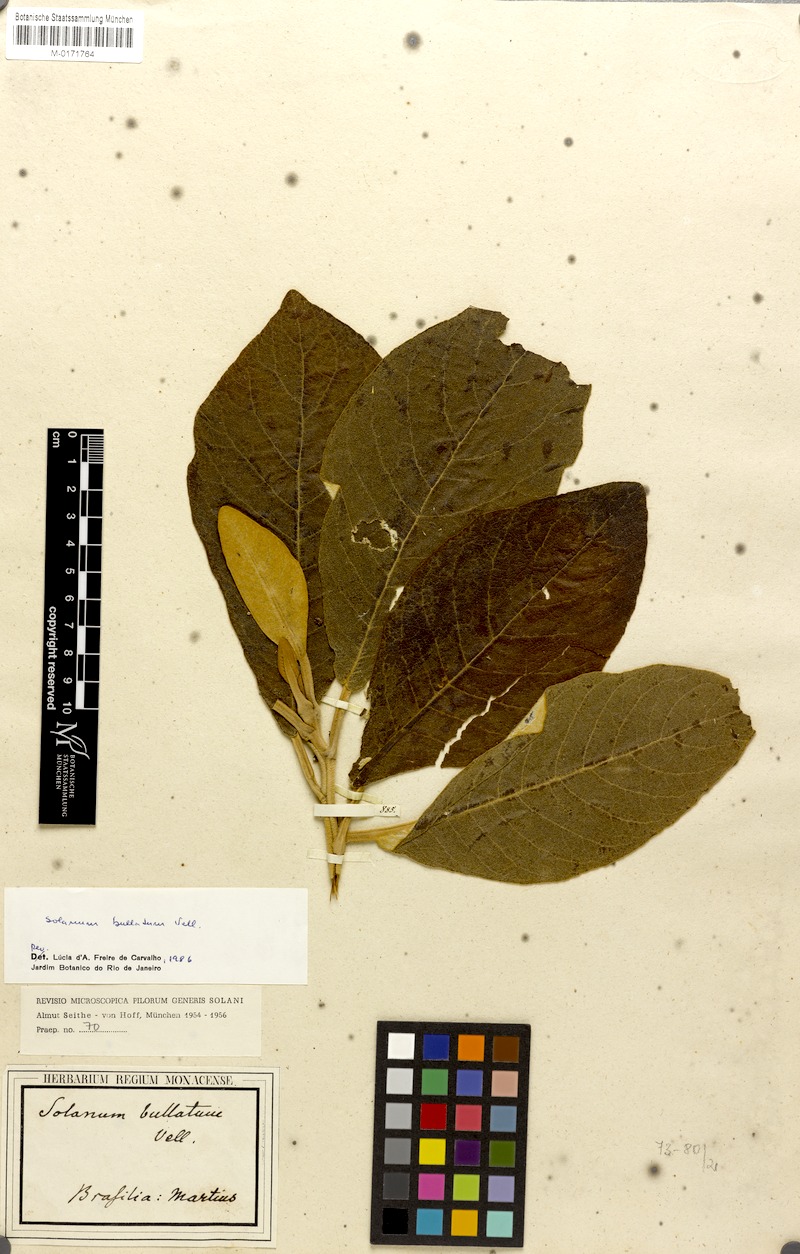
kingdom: Plantae
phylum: Tracheophyta
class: Magnoliopsida
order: Solanales
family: Solanaceae
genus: Solanum
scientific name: Solanum bullatum
